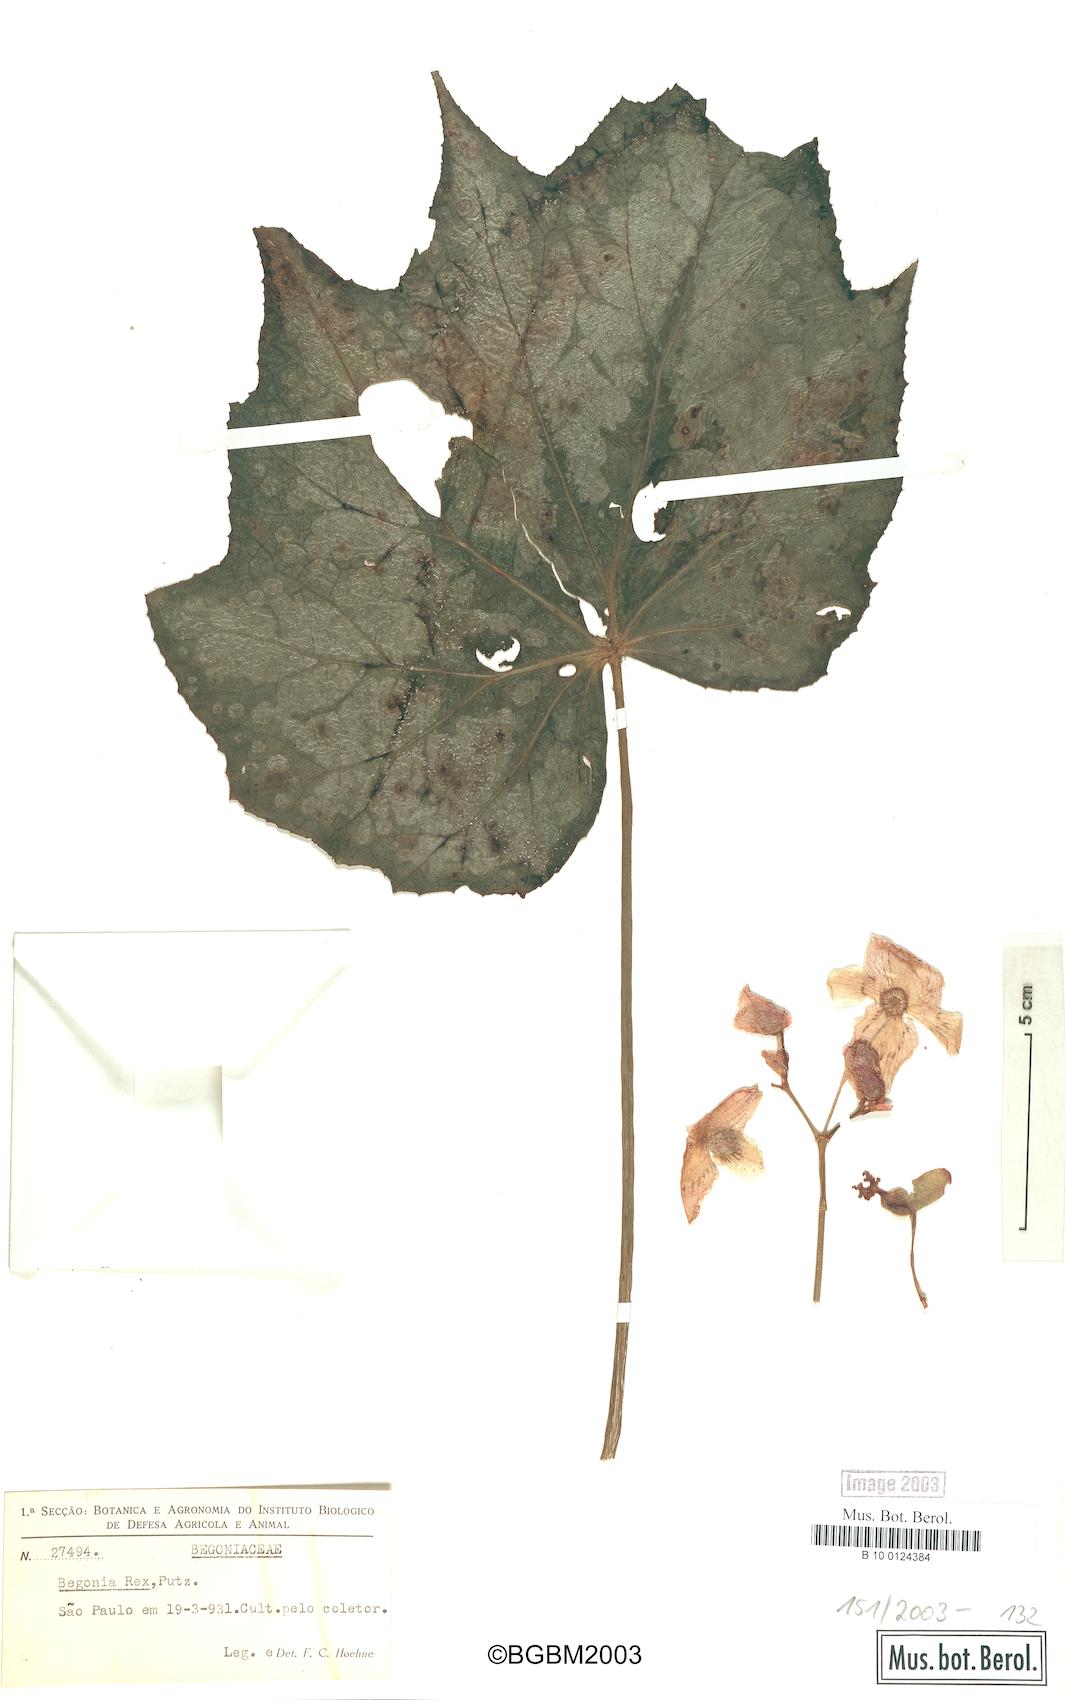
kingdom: Plantae
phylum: Tracheophyta
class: Magnoliopsida
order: Cucurbitales
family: Begoniaceae
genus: Begonia
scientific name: Begonia rex
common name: Painted-leaf begonia
